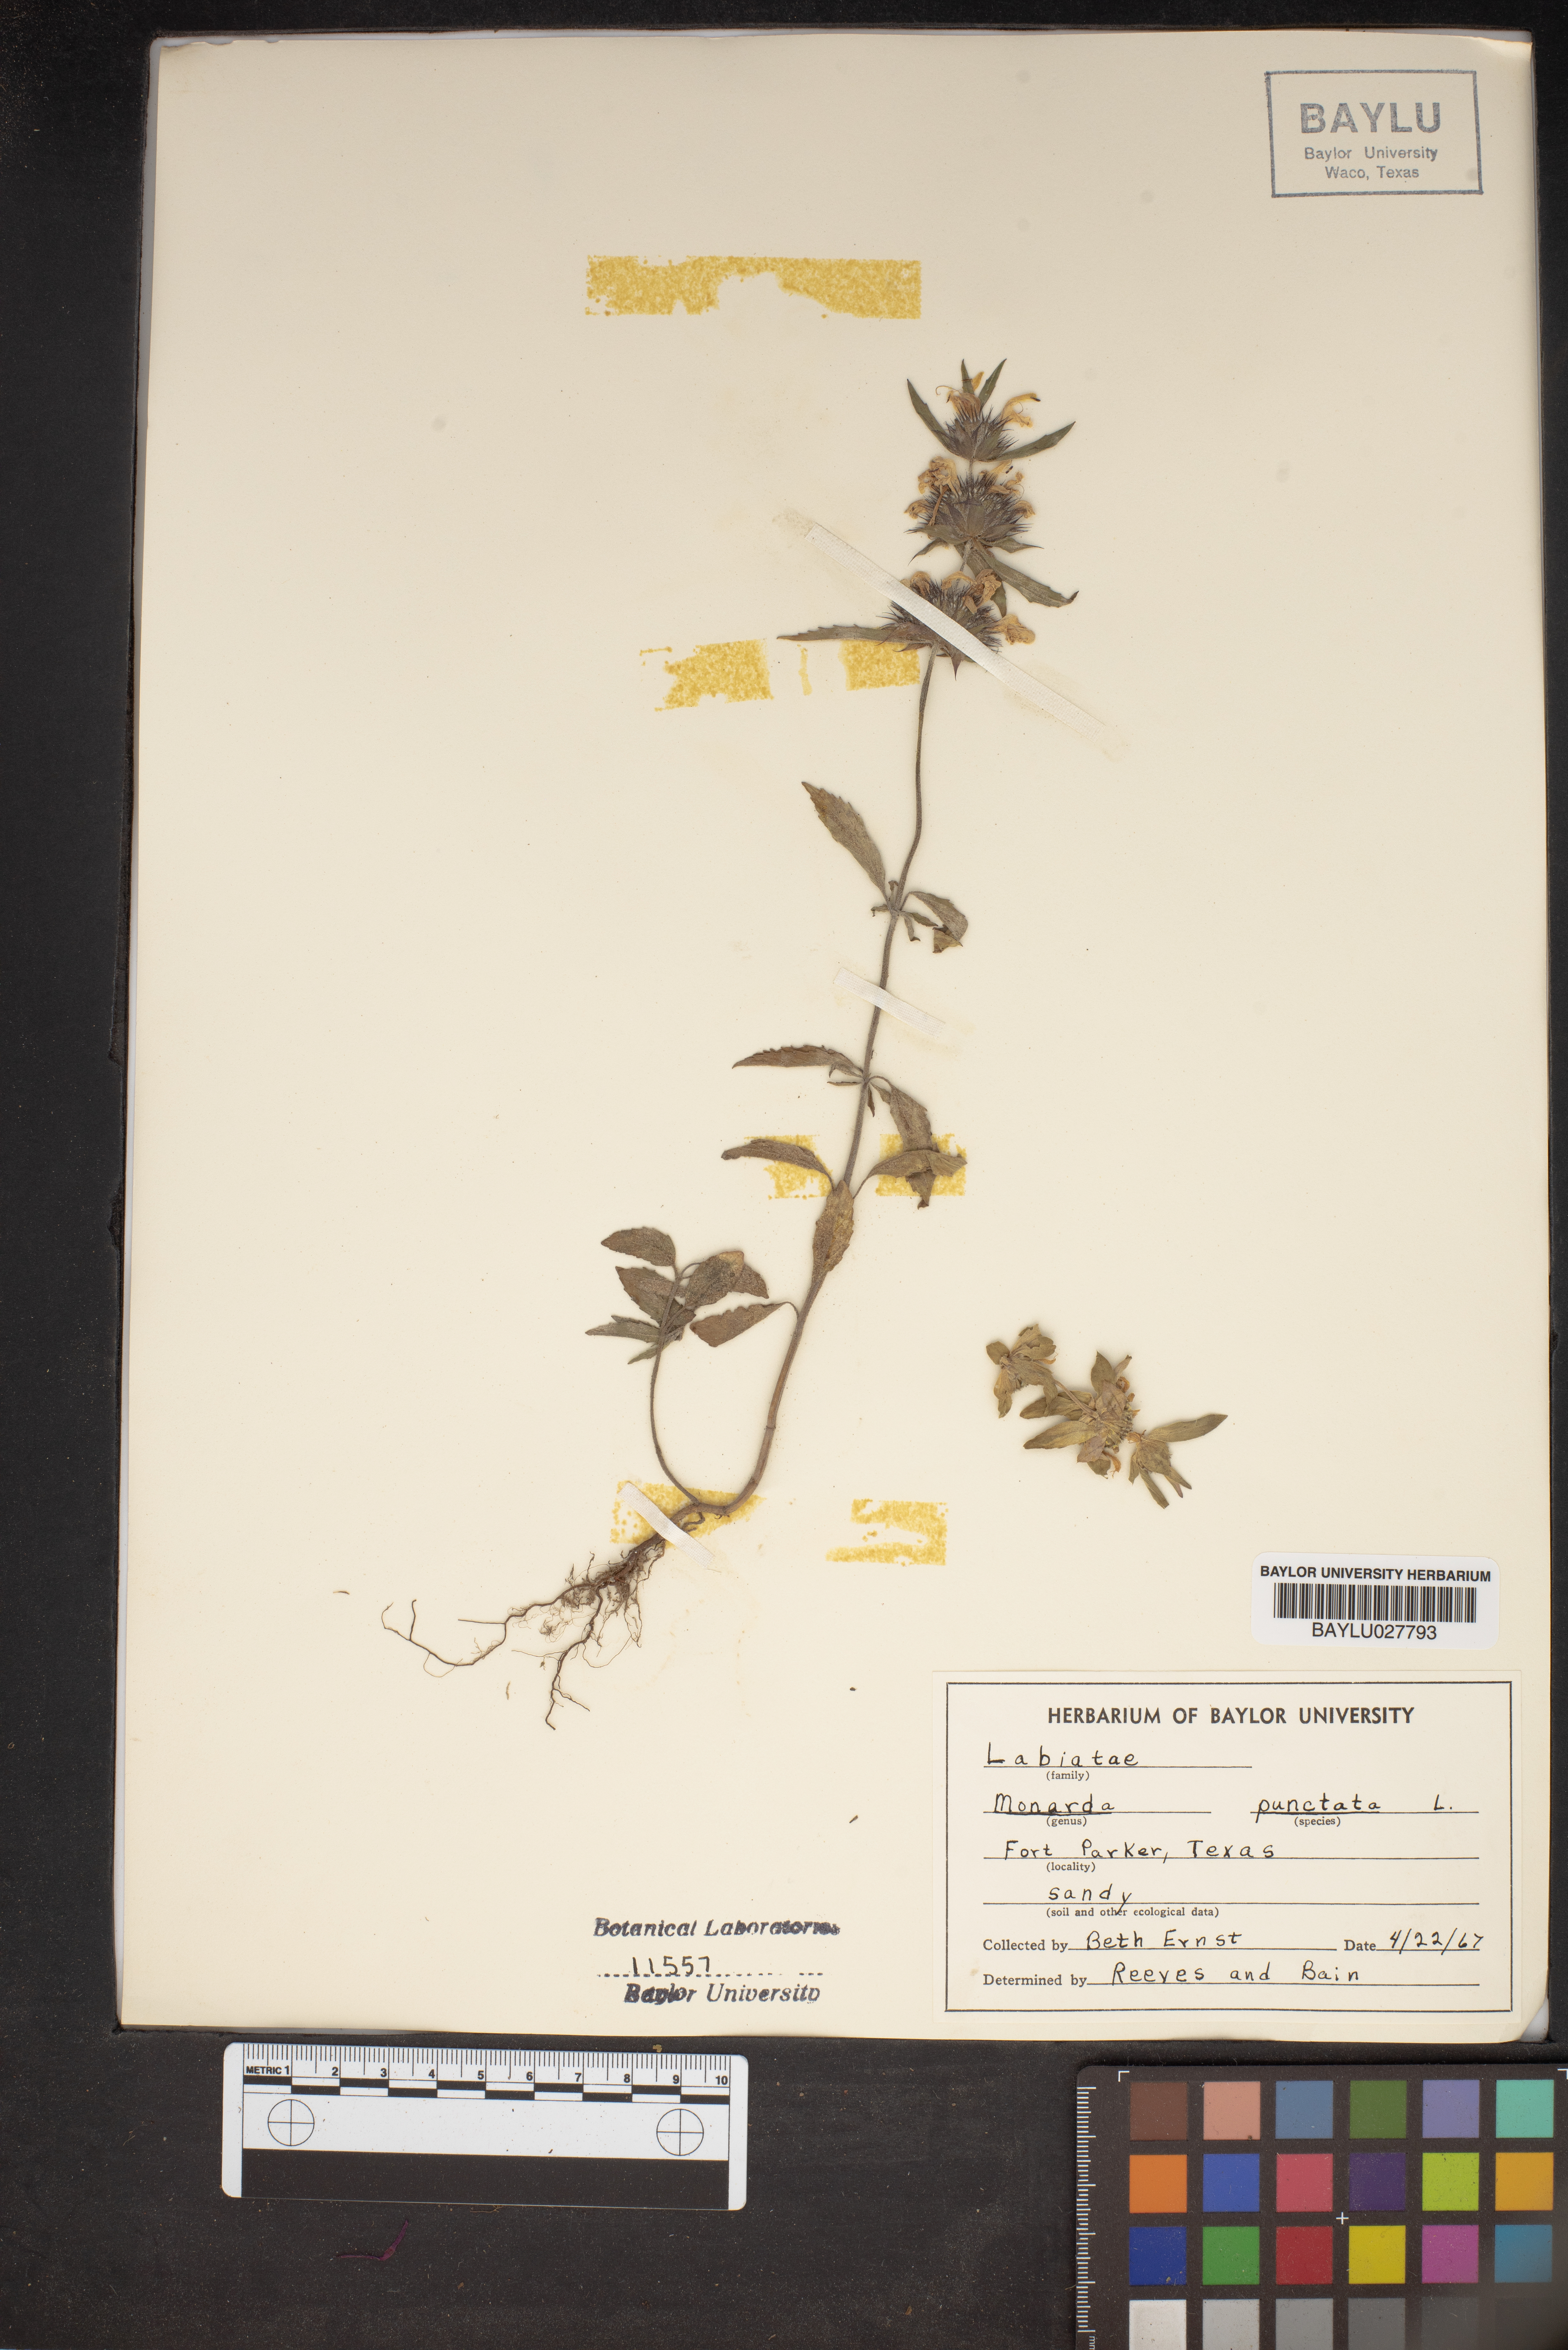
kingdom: Plantae
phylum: Tracheophyta
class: Magnoliopsida
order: Lamiales
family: Lamiaceae
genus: Monarda
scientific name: Monarda punctata
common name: Dotted monarda
